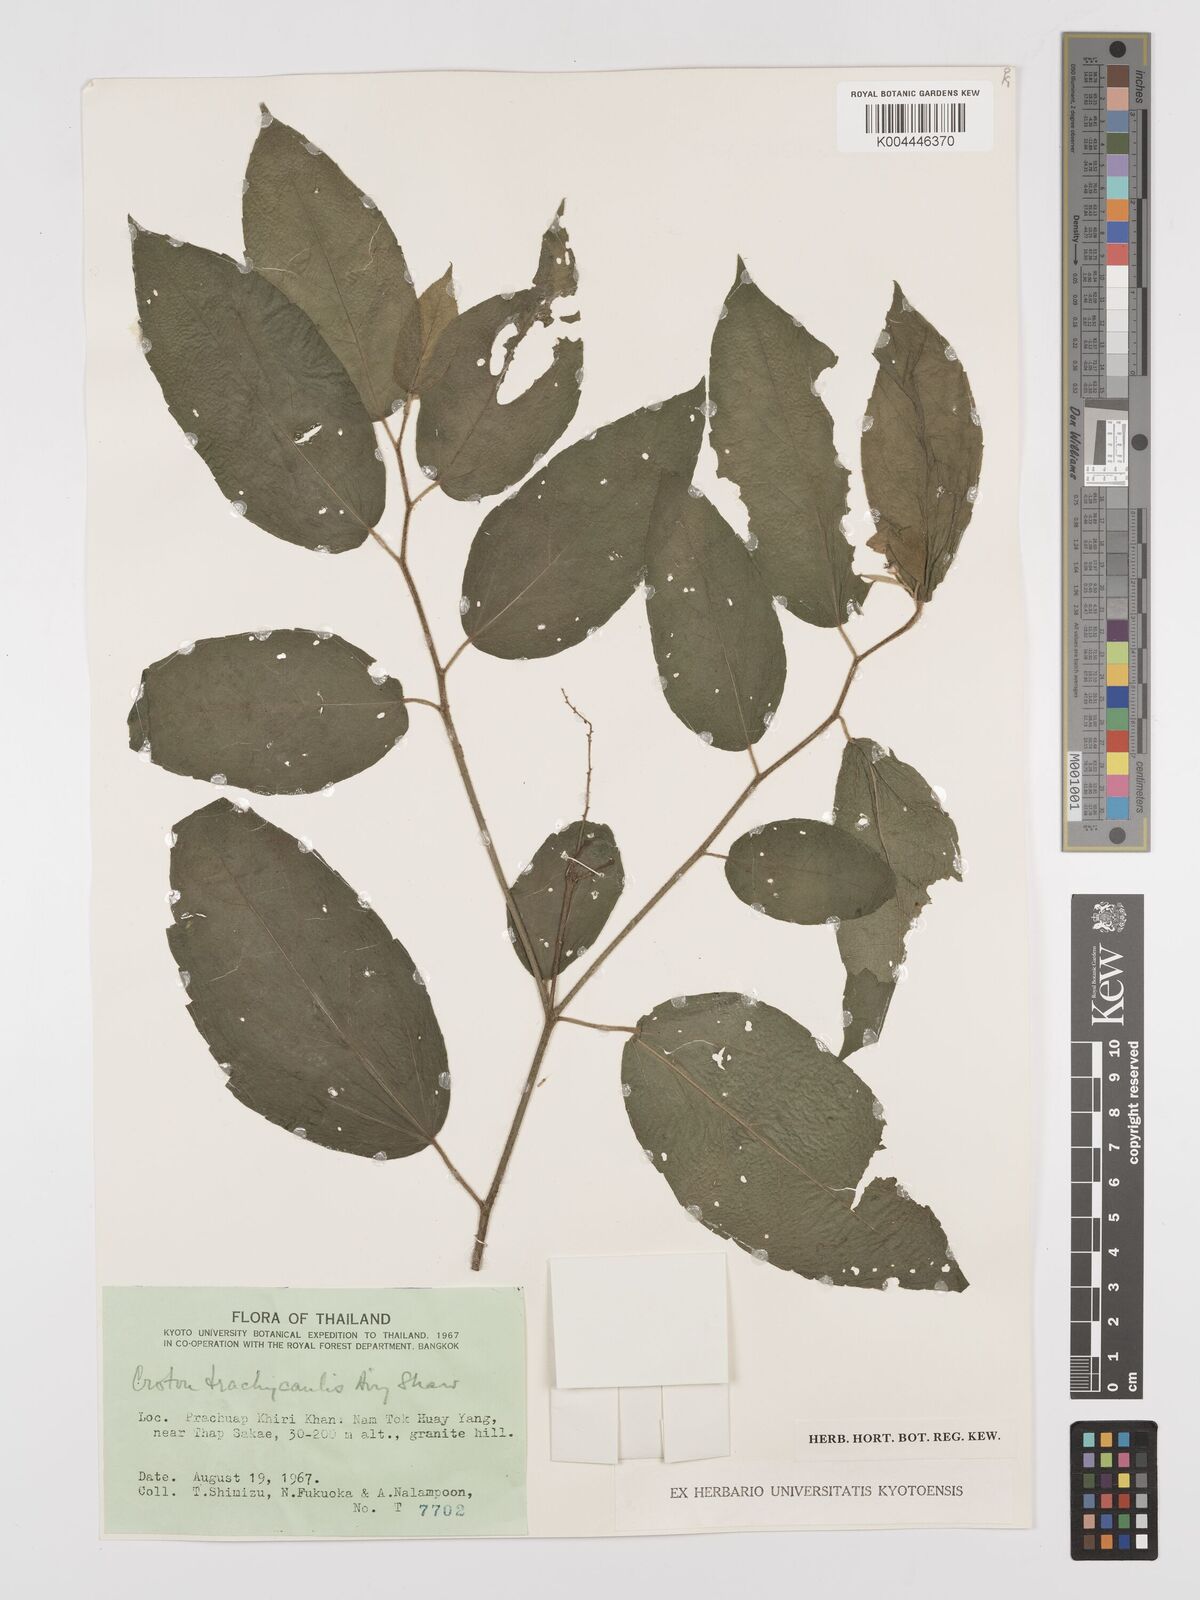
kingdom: Plantae
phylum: Tracheophyta
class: Magnoliopsida
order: Malpighiales
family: Euphorbiaceae
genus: Croton
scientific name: Croton lachnocarpus
